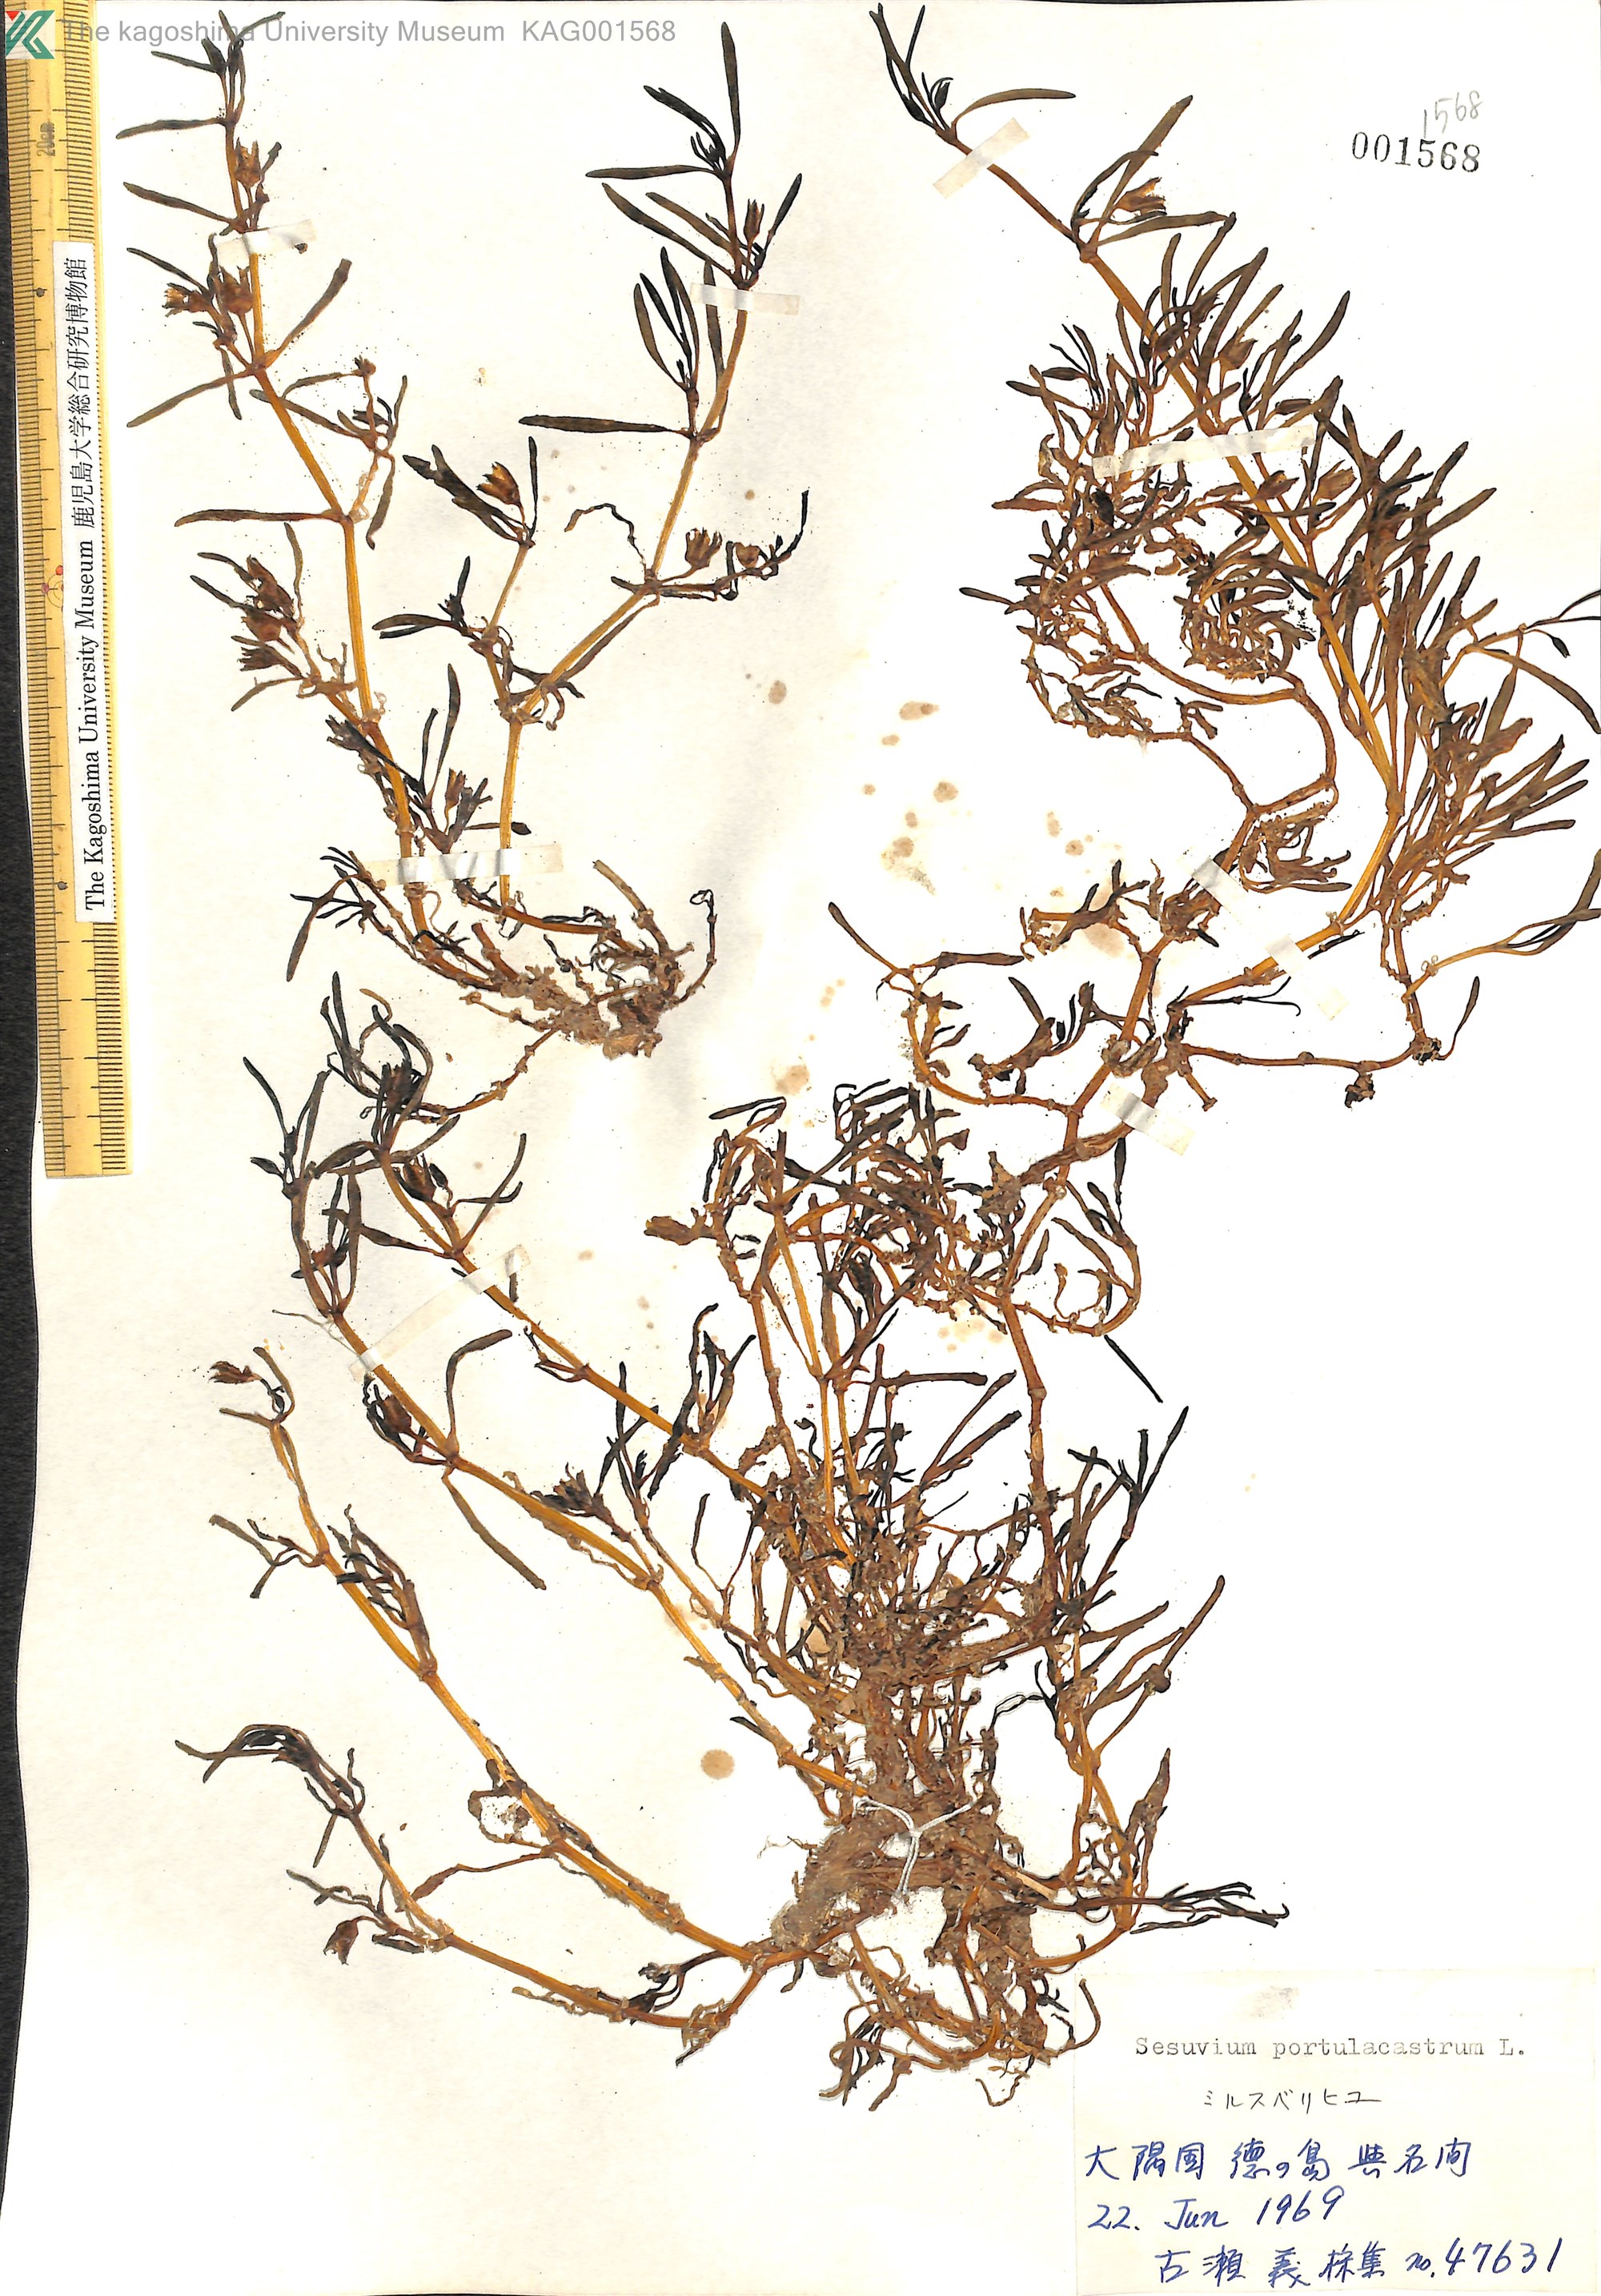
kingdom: Plantae
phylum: Tracheophyta
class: Magnoliopsida
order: Caryophyllales
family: Aizoaceae
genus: Sesuvium
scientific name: Sesuvium portulacastrum
